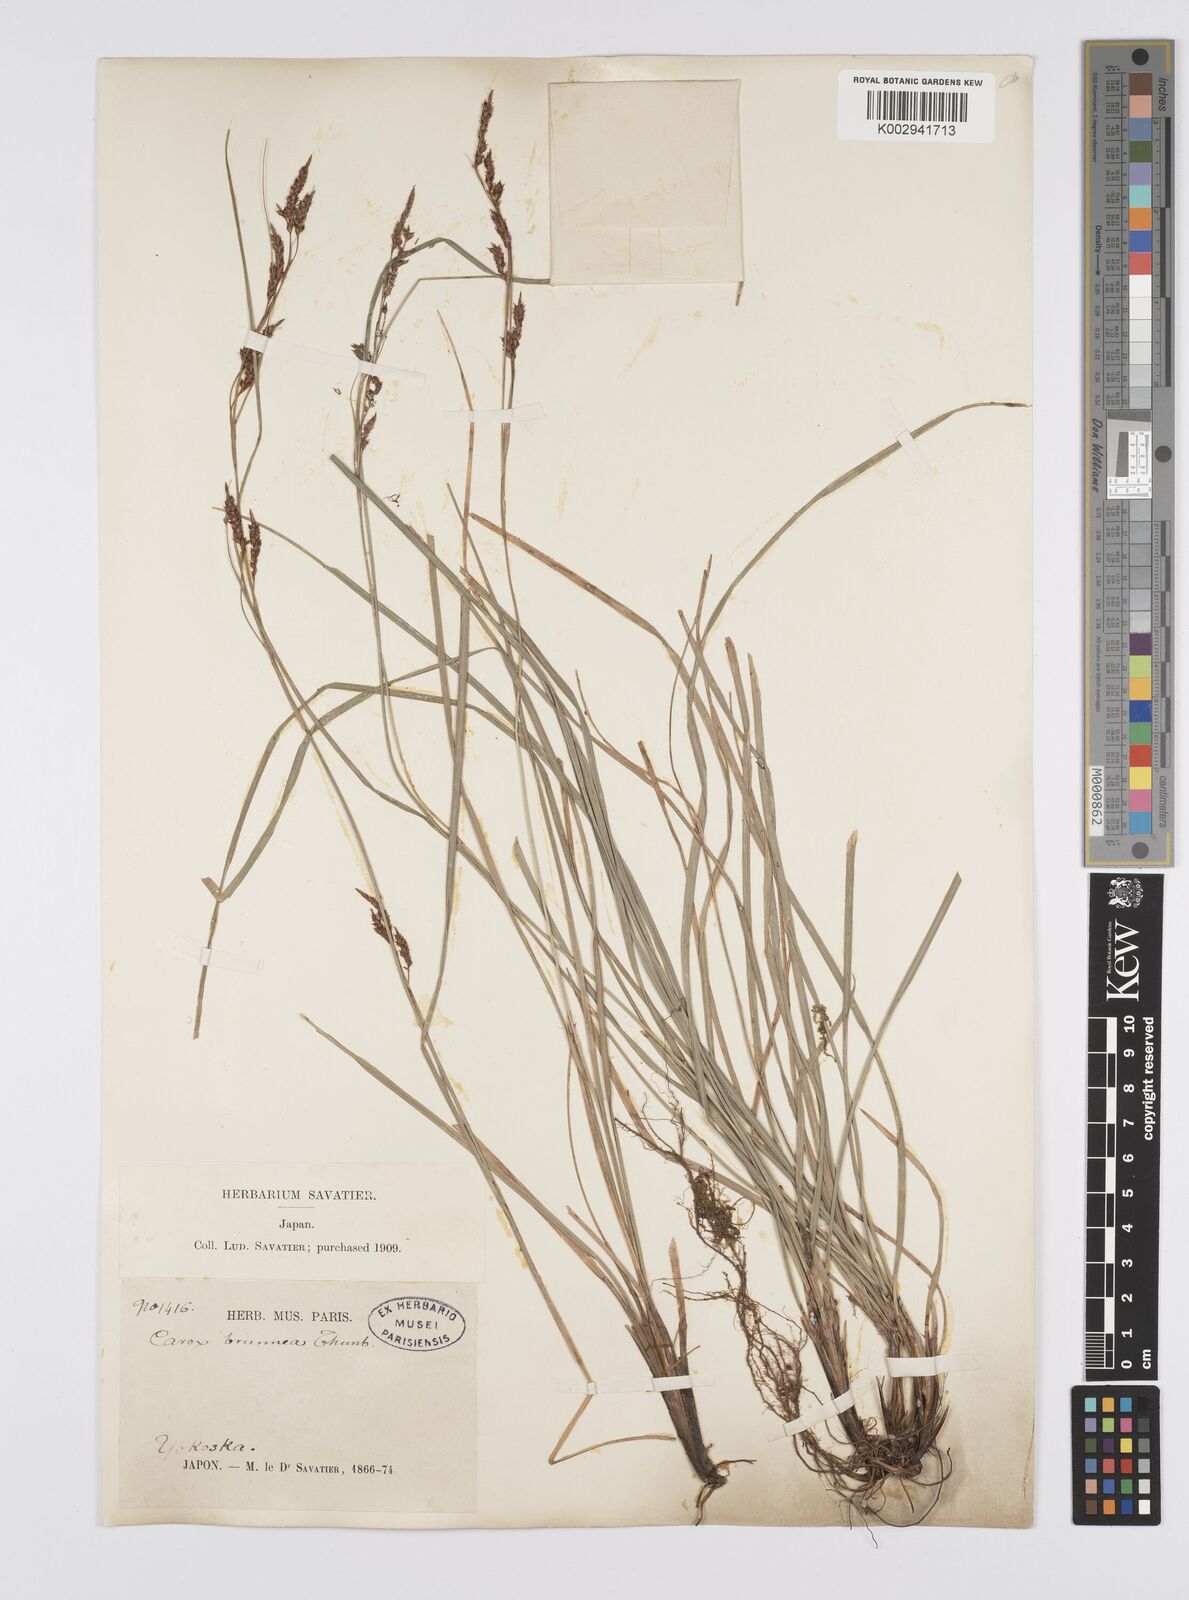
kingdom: Plantae
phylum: Tracheophyta
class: Liliopsida
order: Poales
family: Cyperaceae
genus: Carex
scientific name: Carex brunnea
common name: Greater brown sedge
